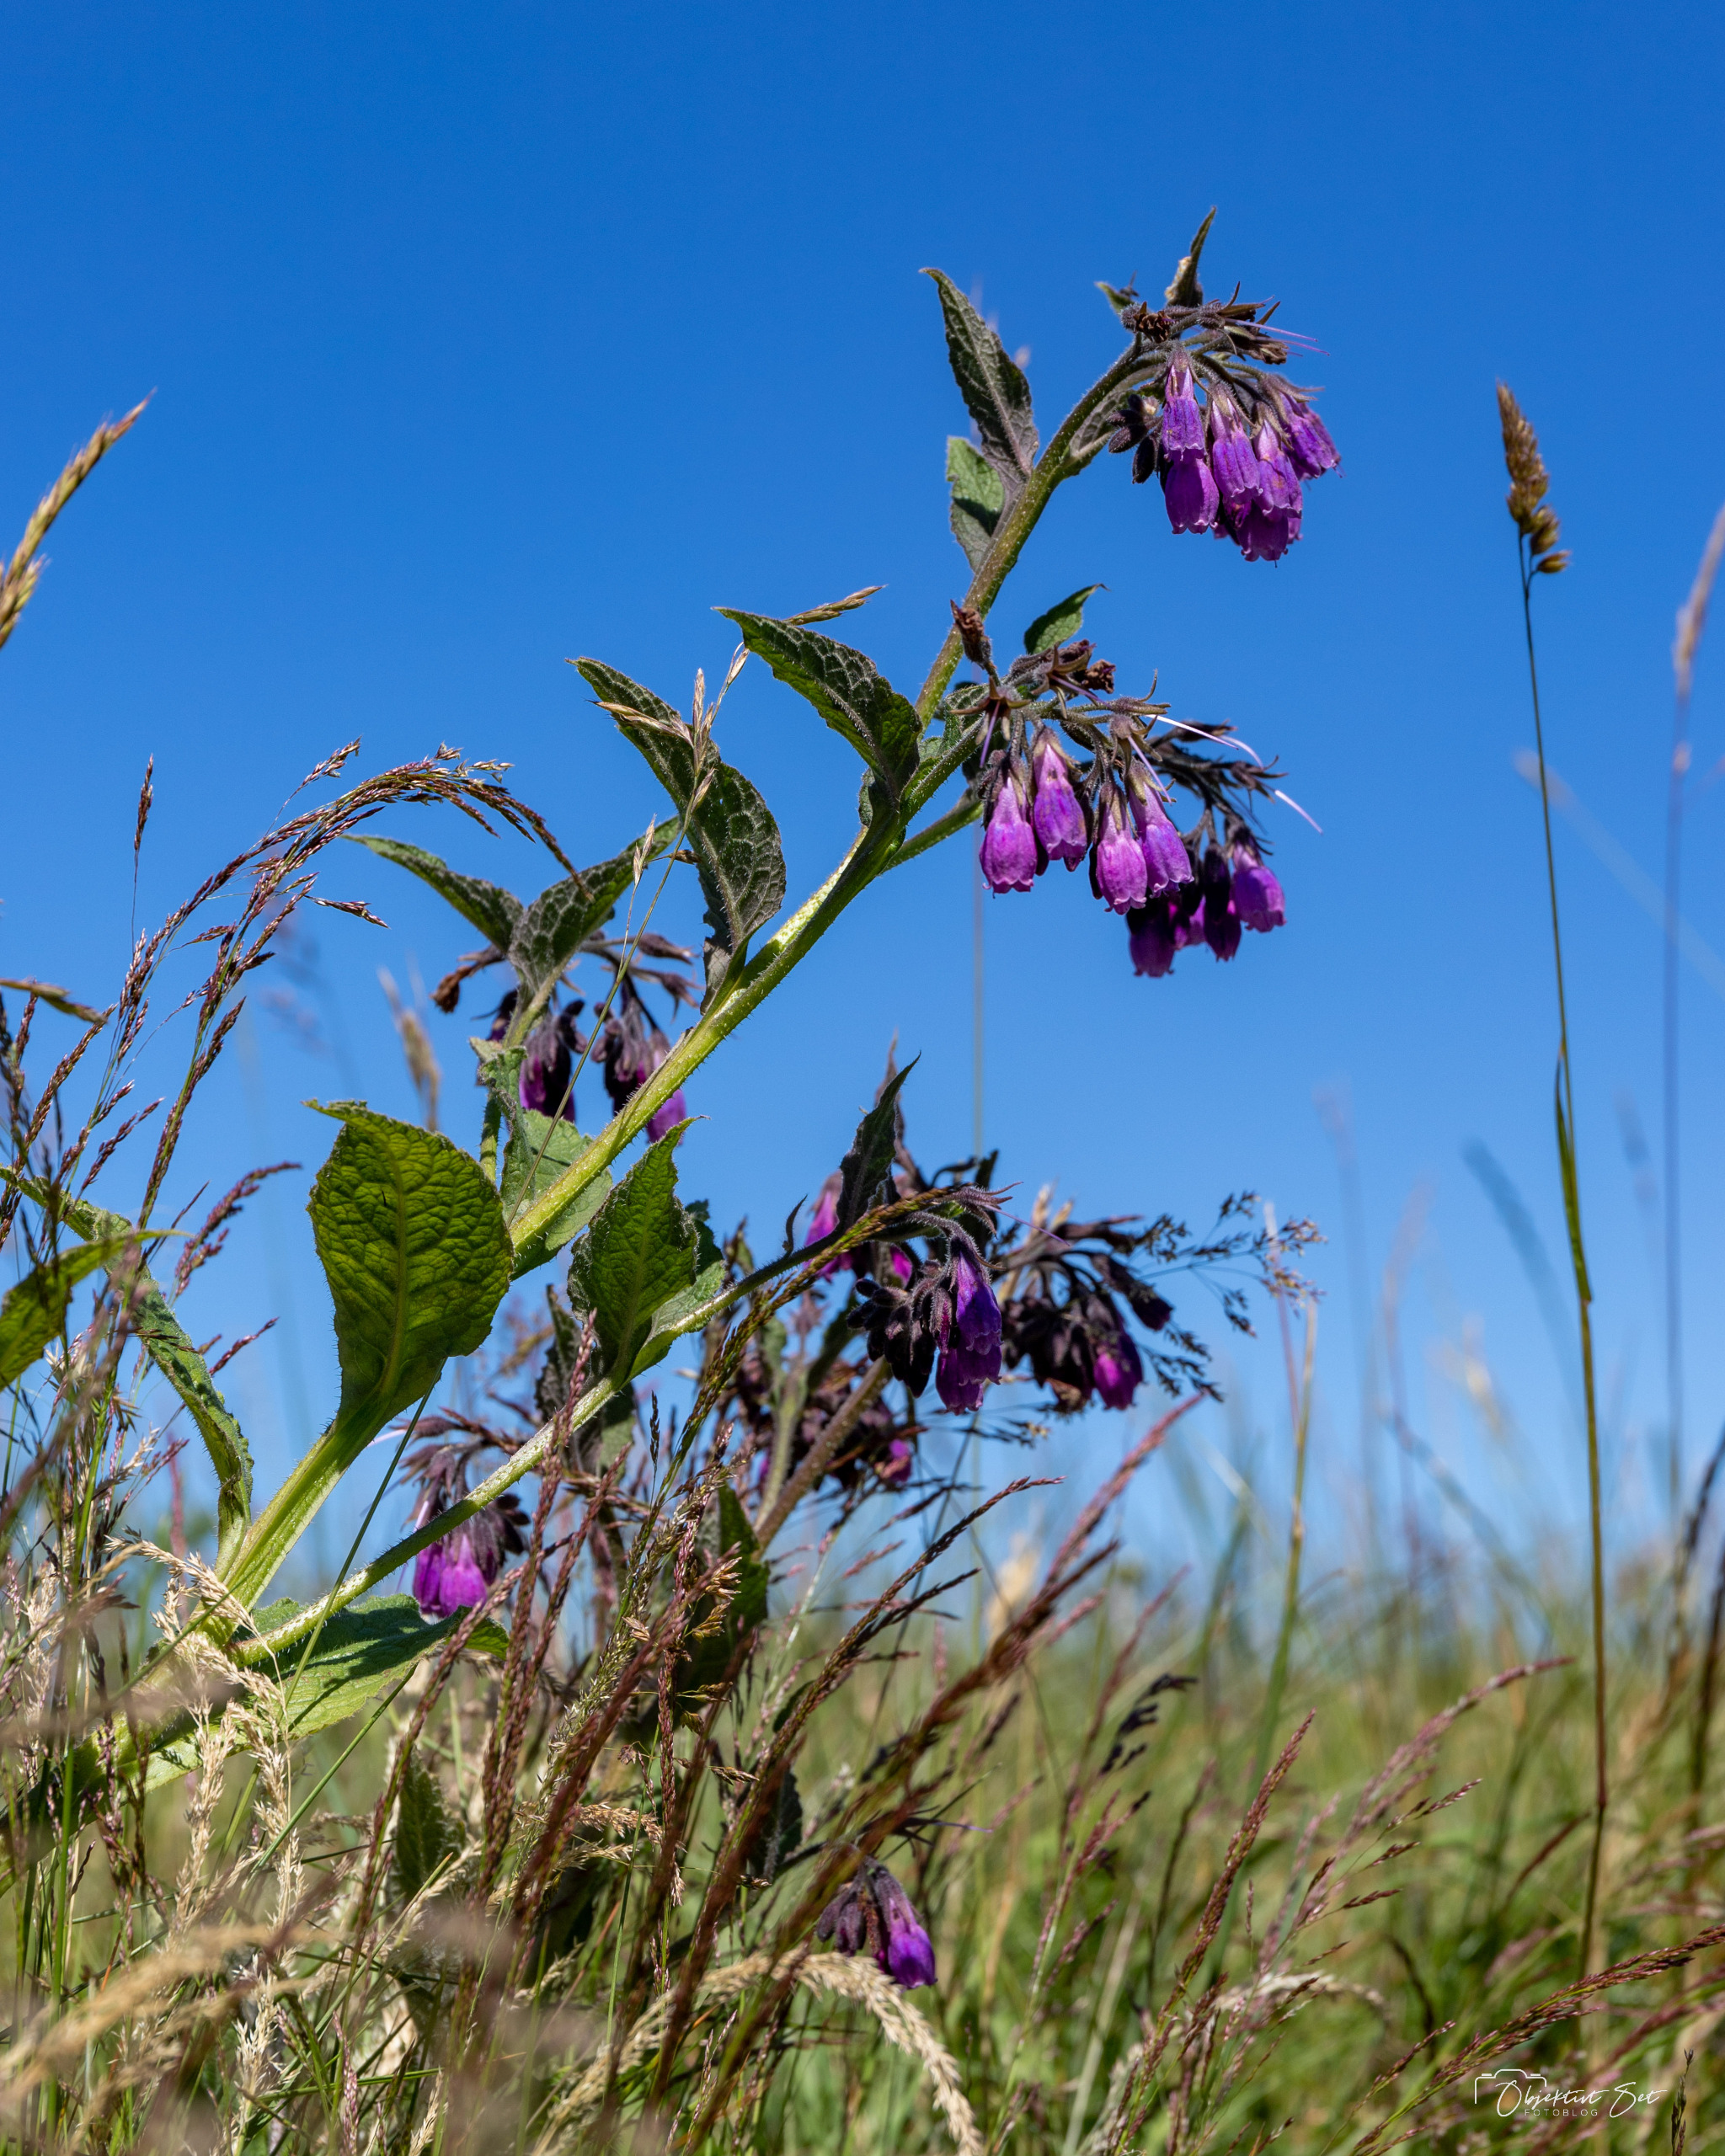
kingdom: Plantae
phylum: Tracheophyta
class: Magnoliopsida
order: Boraginales
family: Boraginaceae
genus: Symphytum
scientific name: Symphytum officinale
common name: Læge-kulsukker
